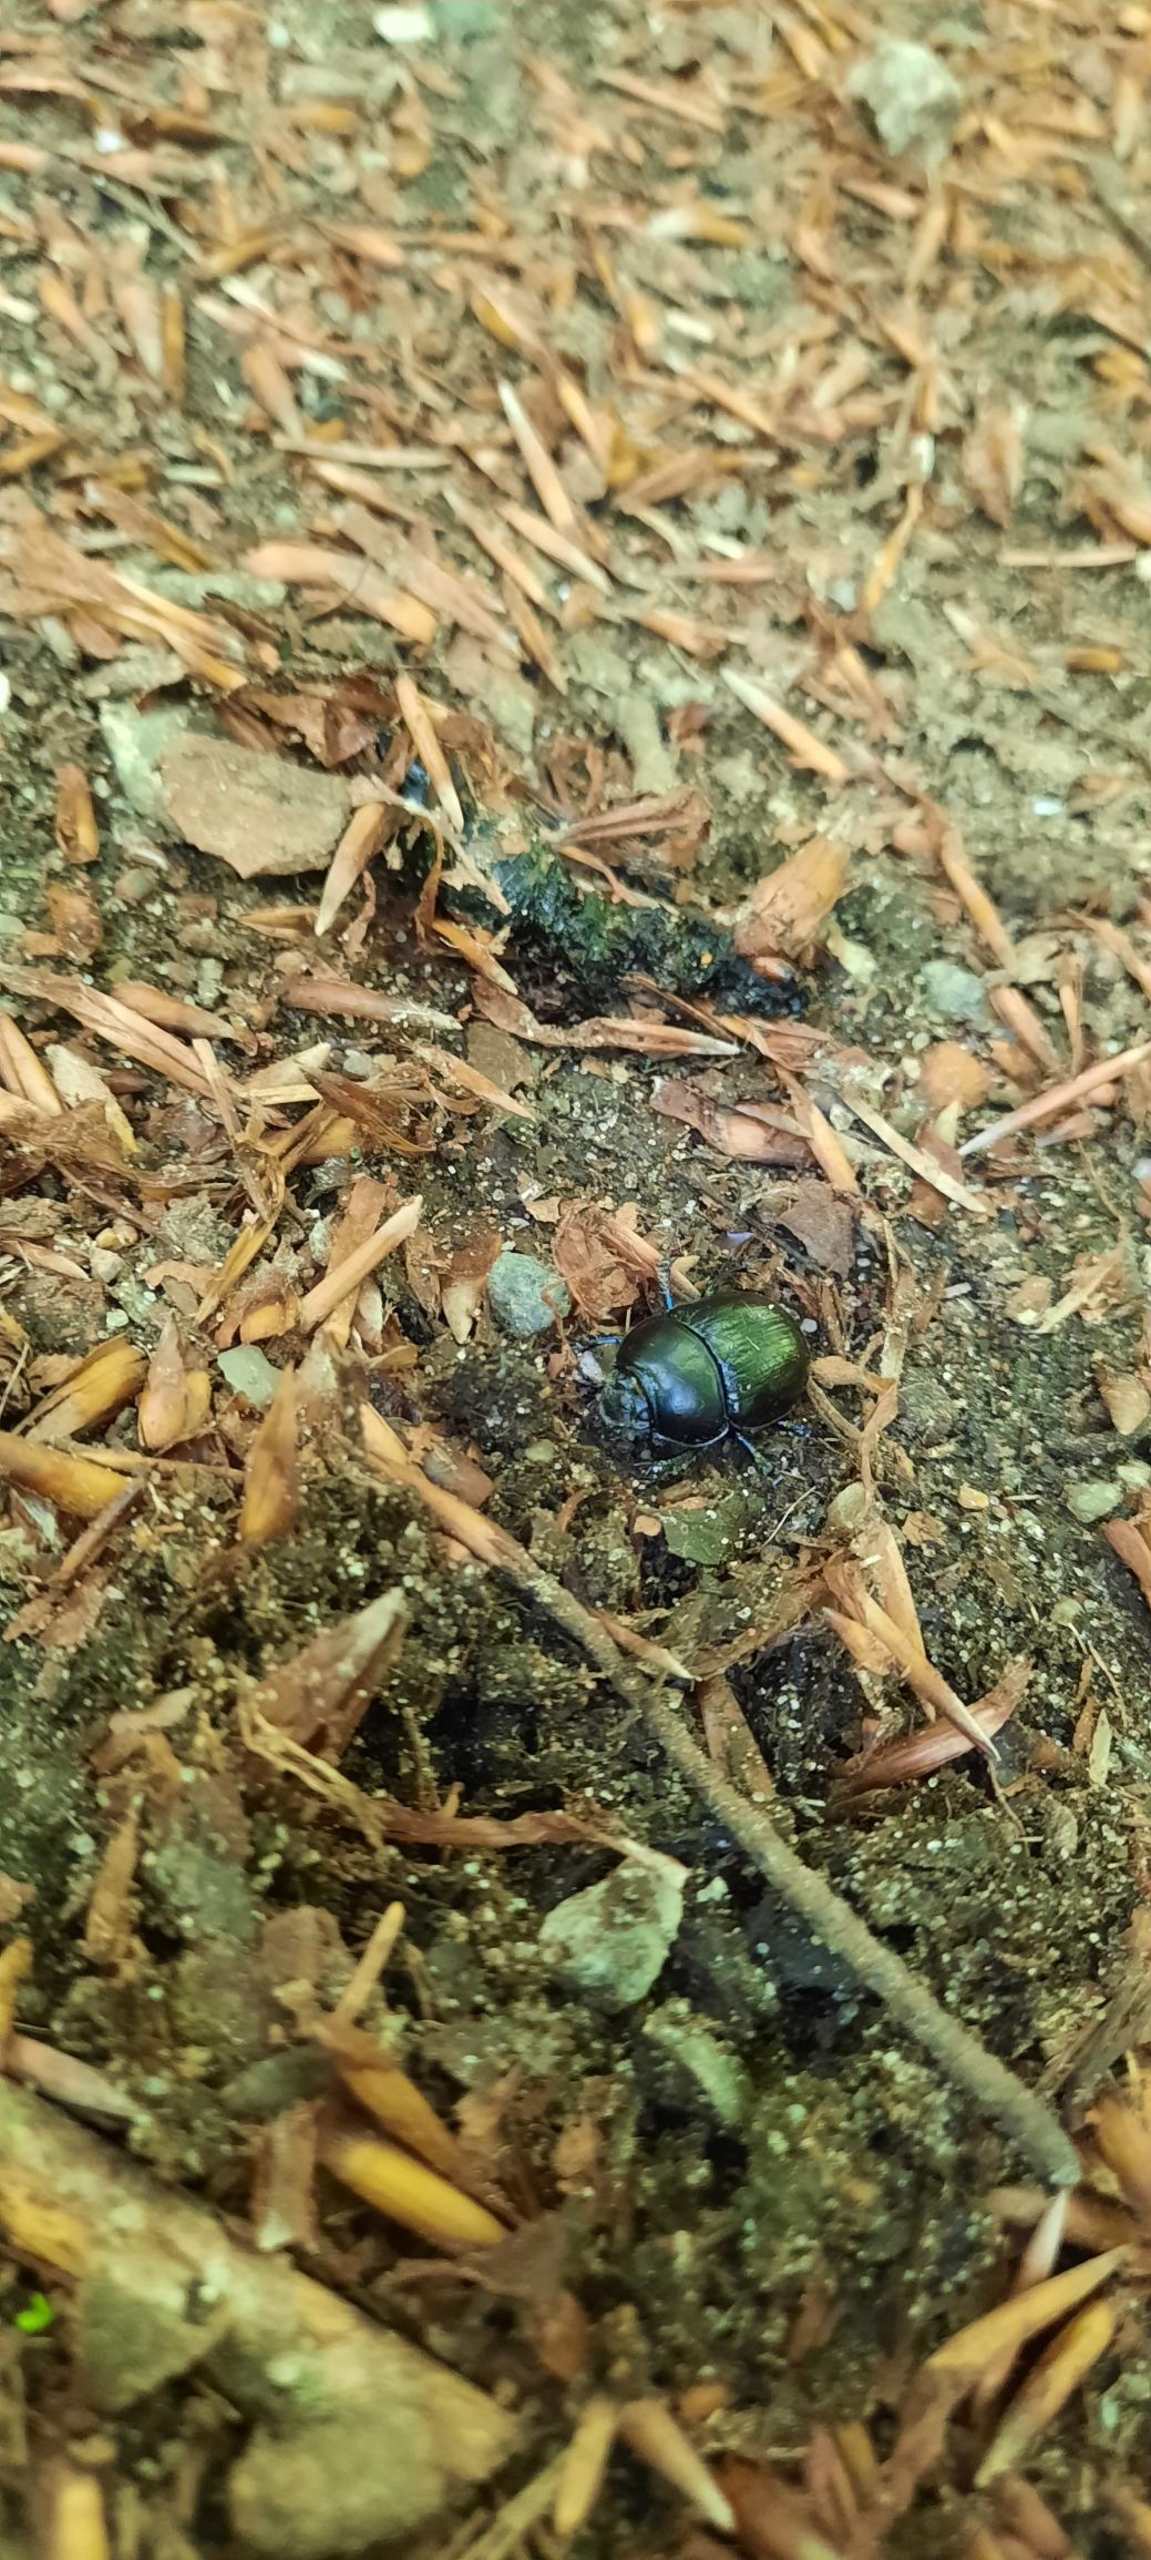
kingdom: Animalia
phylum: Arthropoda
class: Insecta
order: Coleoptera
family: Geotrupidae
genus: Anoplotrupes
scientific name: Anoplotrupes stercorosus
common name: Skovskarnbasse
